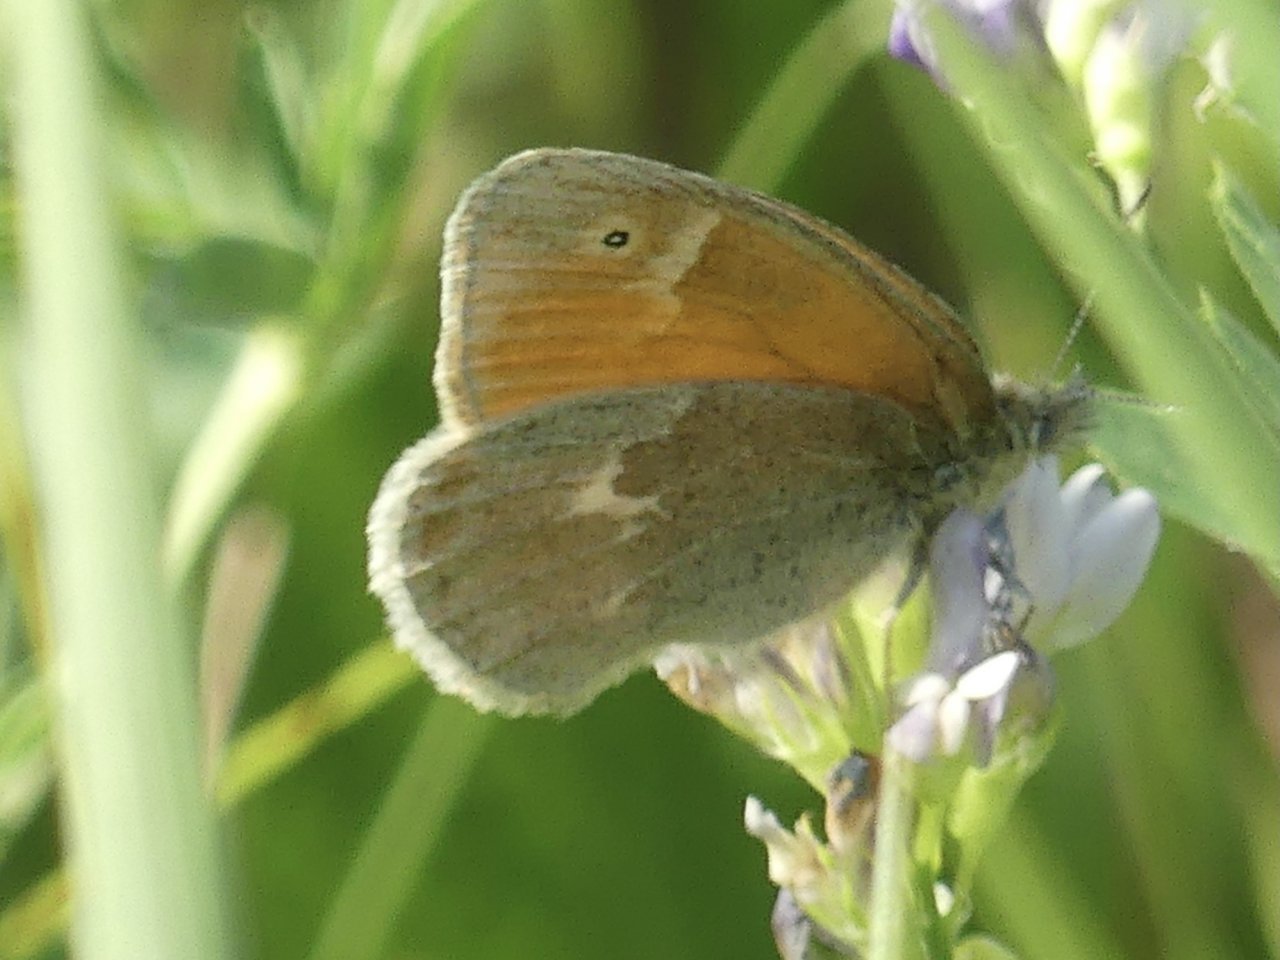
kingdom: Animalia
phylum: Arthropoda
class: Insecta
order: Lepidoptera
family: Nymphalidae
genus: Coenonympha
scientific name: Coenonympha tullia
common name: Large Heath
